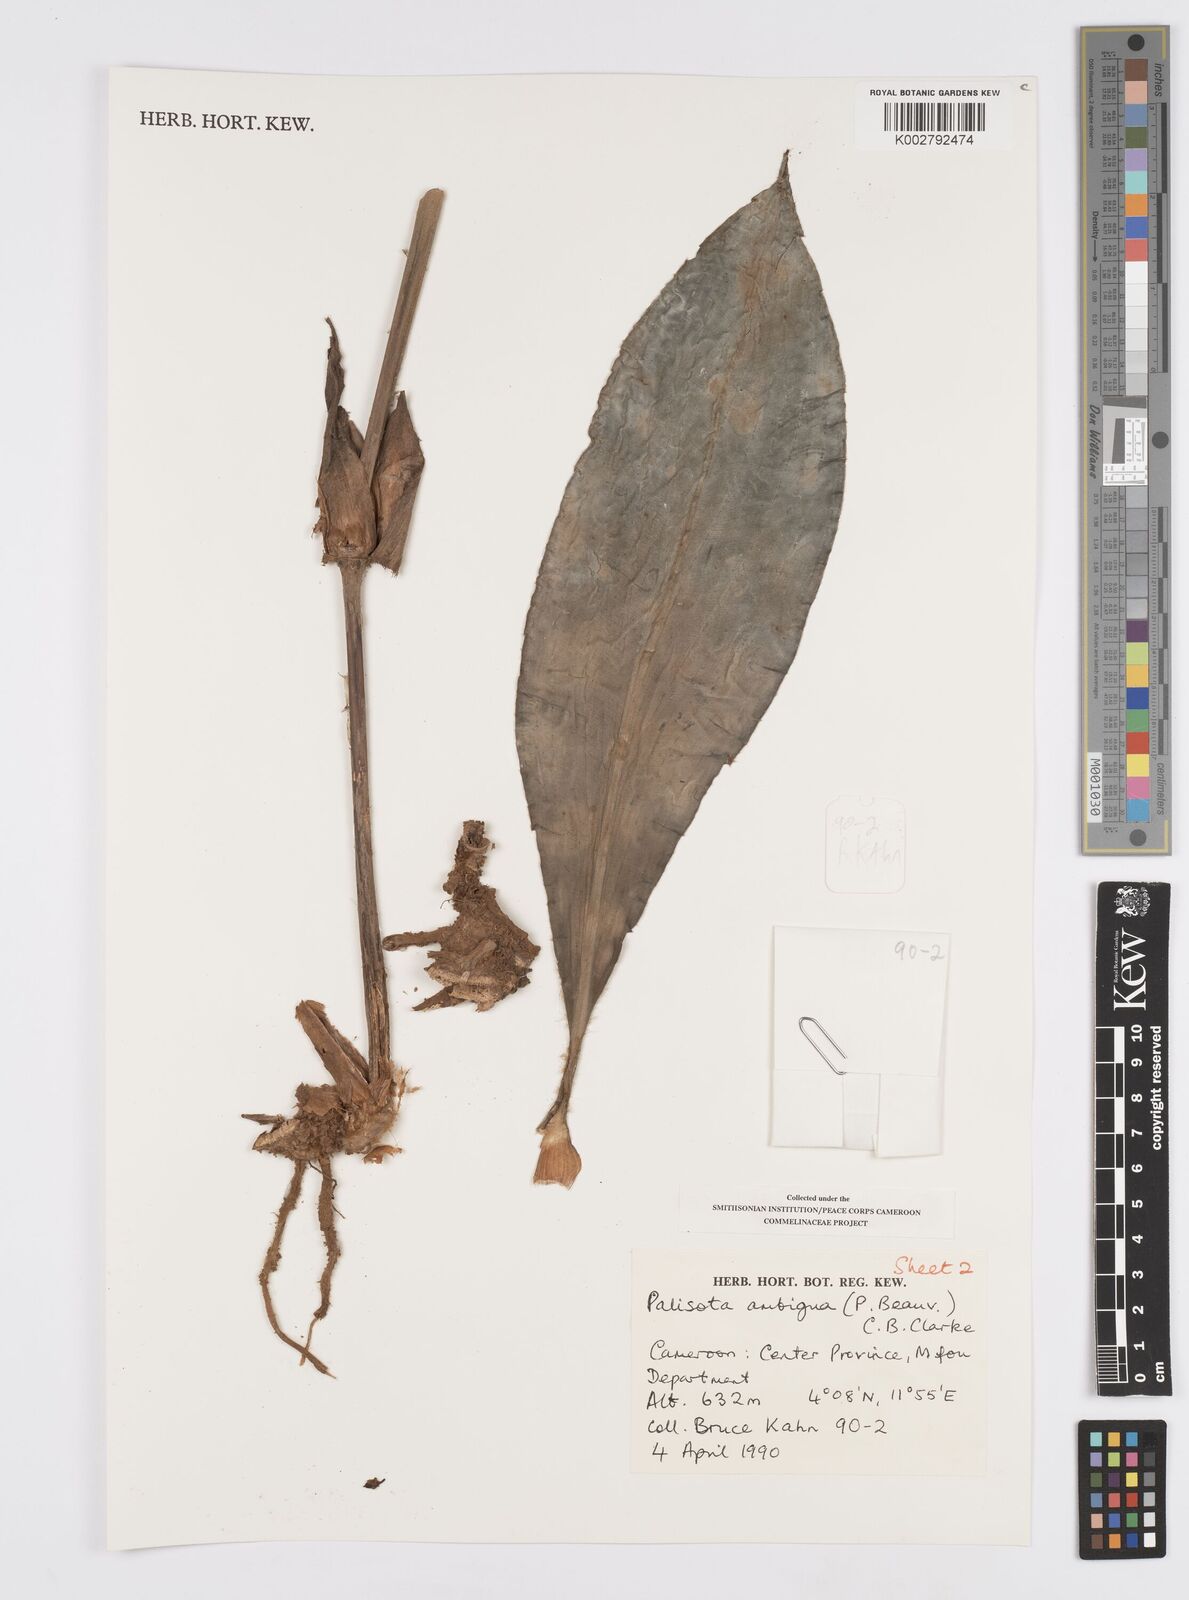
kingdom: Plantae
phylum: Tracheophyta
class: Liliopsida
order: Commelinales
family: Commelinaceae
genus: Palisota
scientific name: Palisota ambigua
